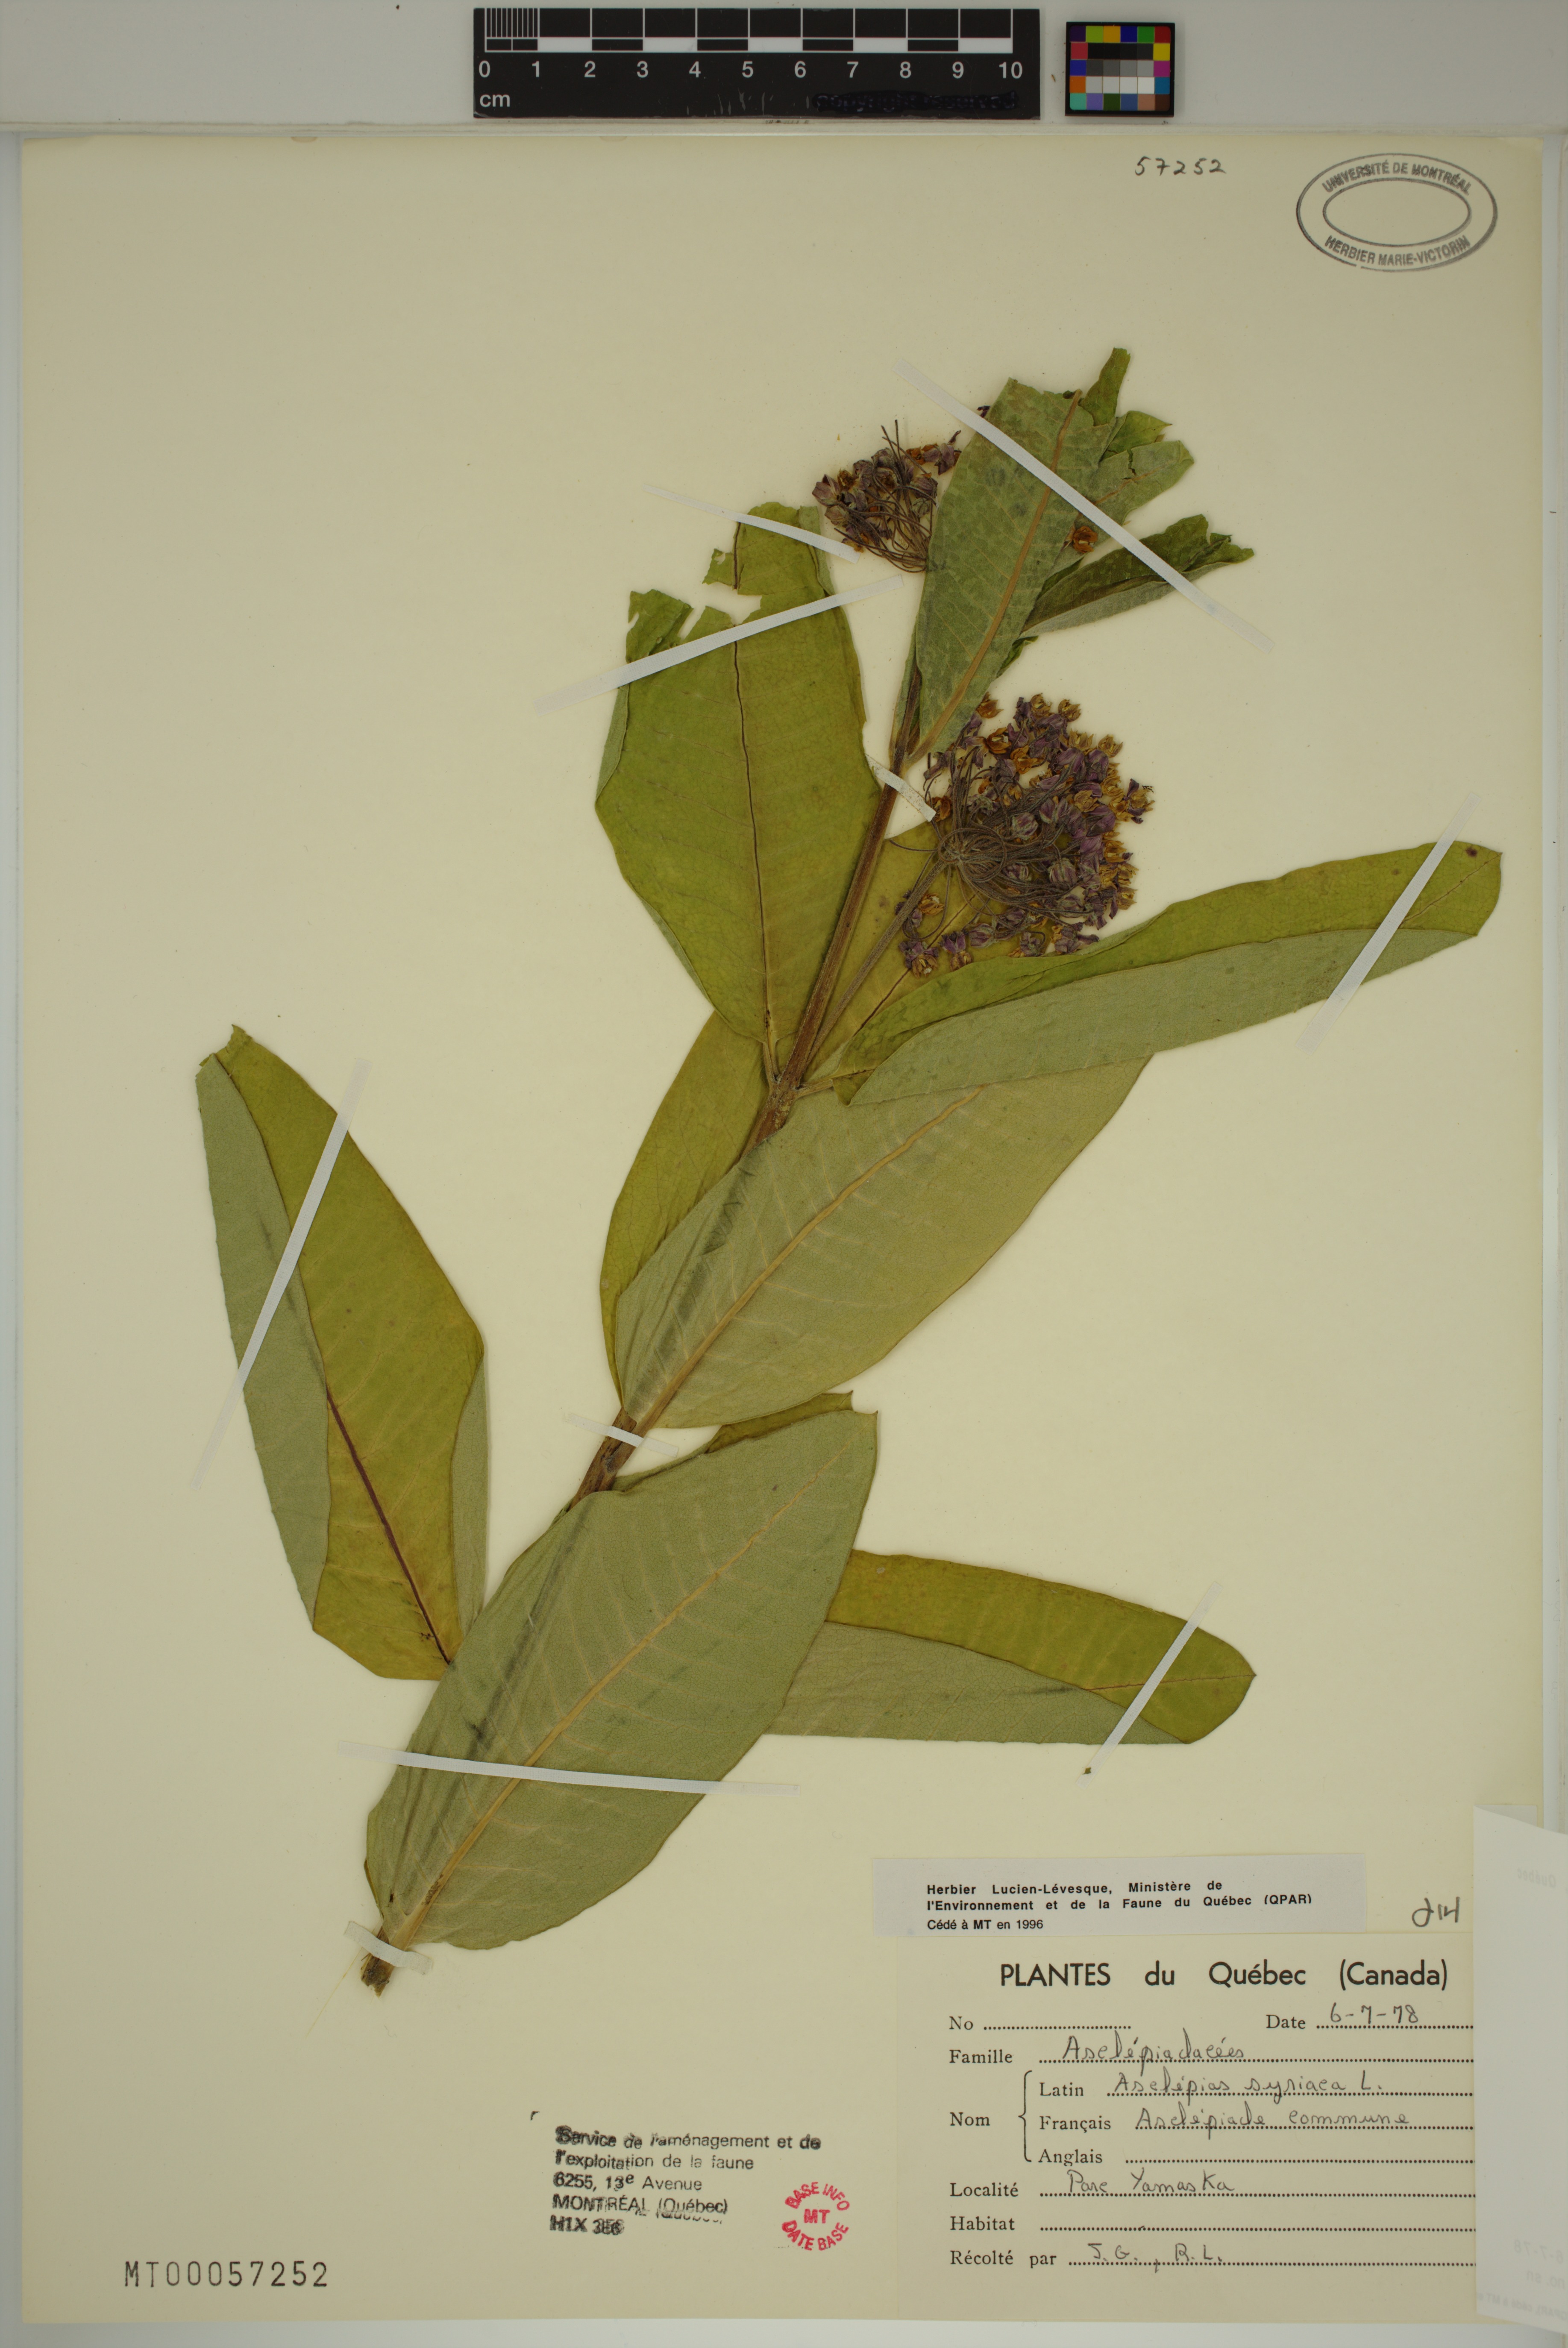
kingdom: Plantae
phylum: Tracheophyta
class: Magnoliopsida
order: Gentianales
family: Apocynaceae
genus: Asclepias
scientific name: Asclepias syriaca
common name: Common milkweed
